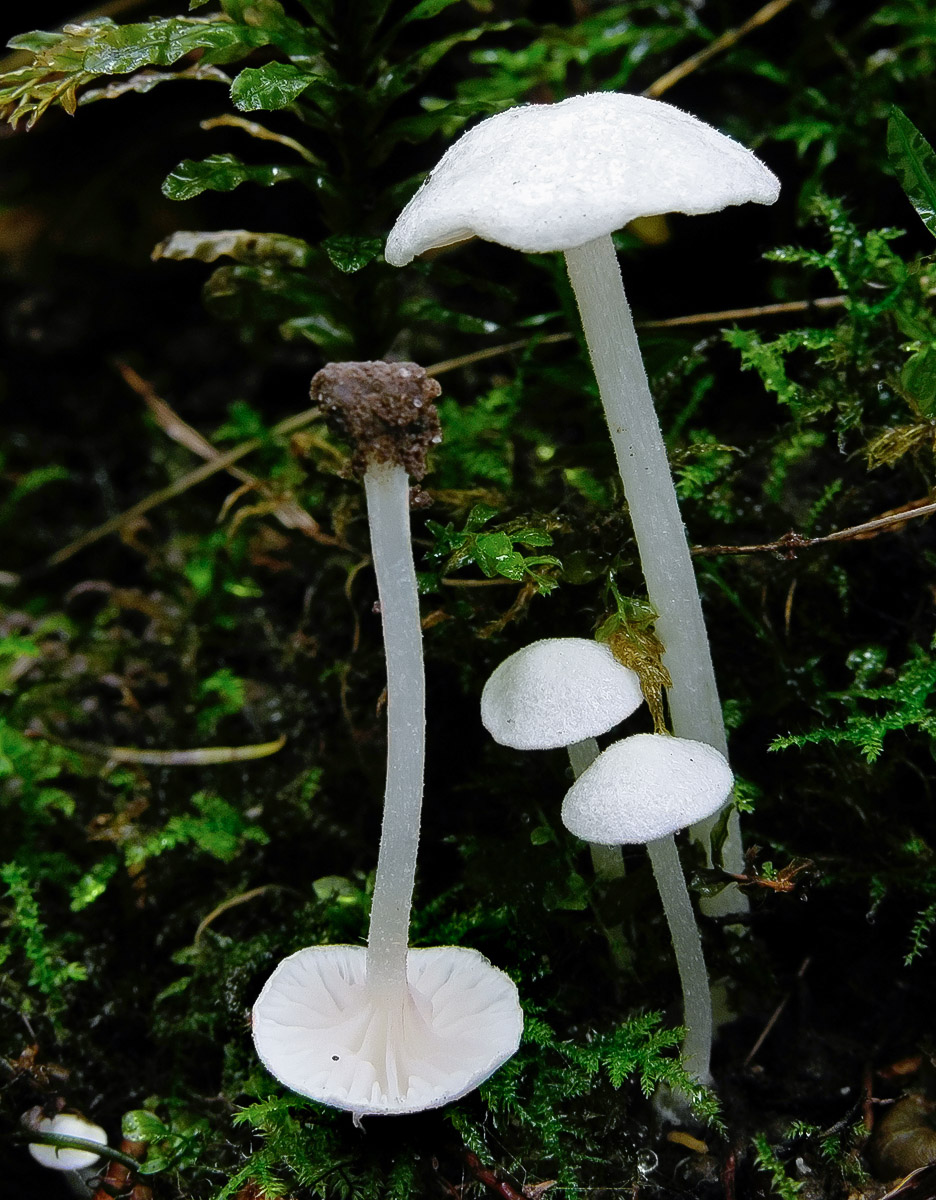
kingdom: Fungi
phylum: Basidiomycota
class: Agaricomycetes
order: Agaricales
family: Entolomataceae
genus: Entoloma
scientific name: Entoloma cephalotrichum
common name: hvidhåret rødblad
